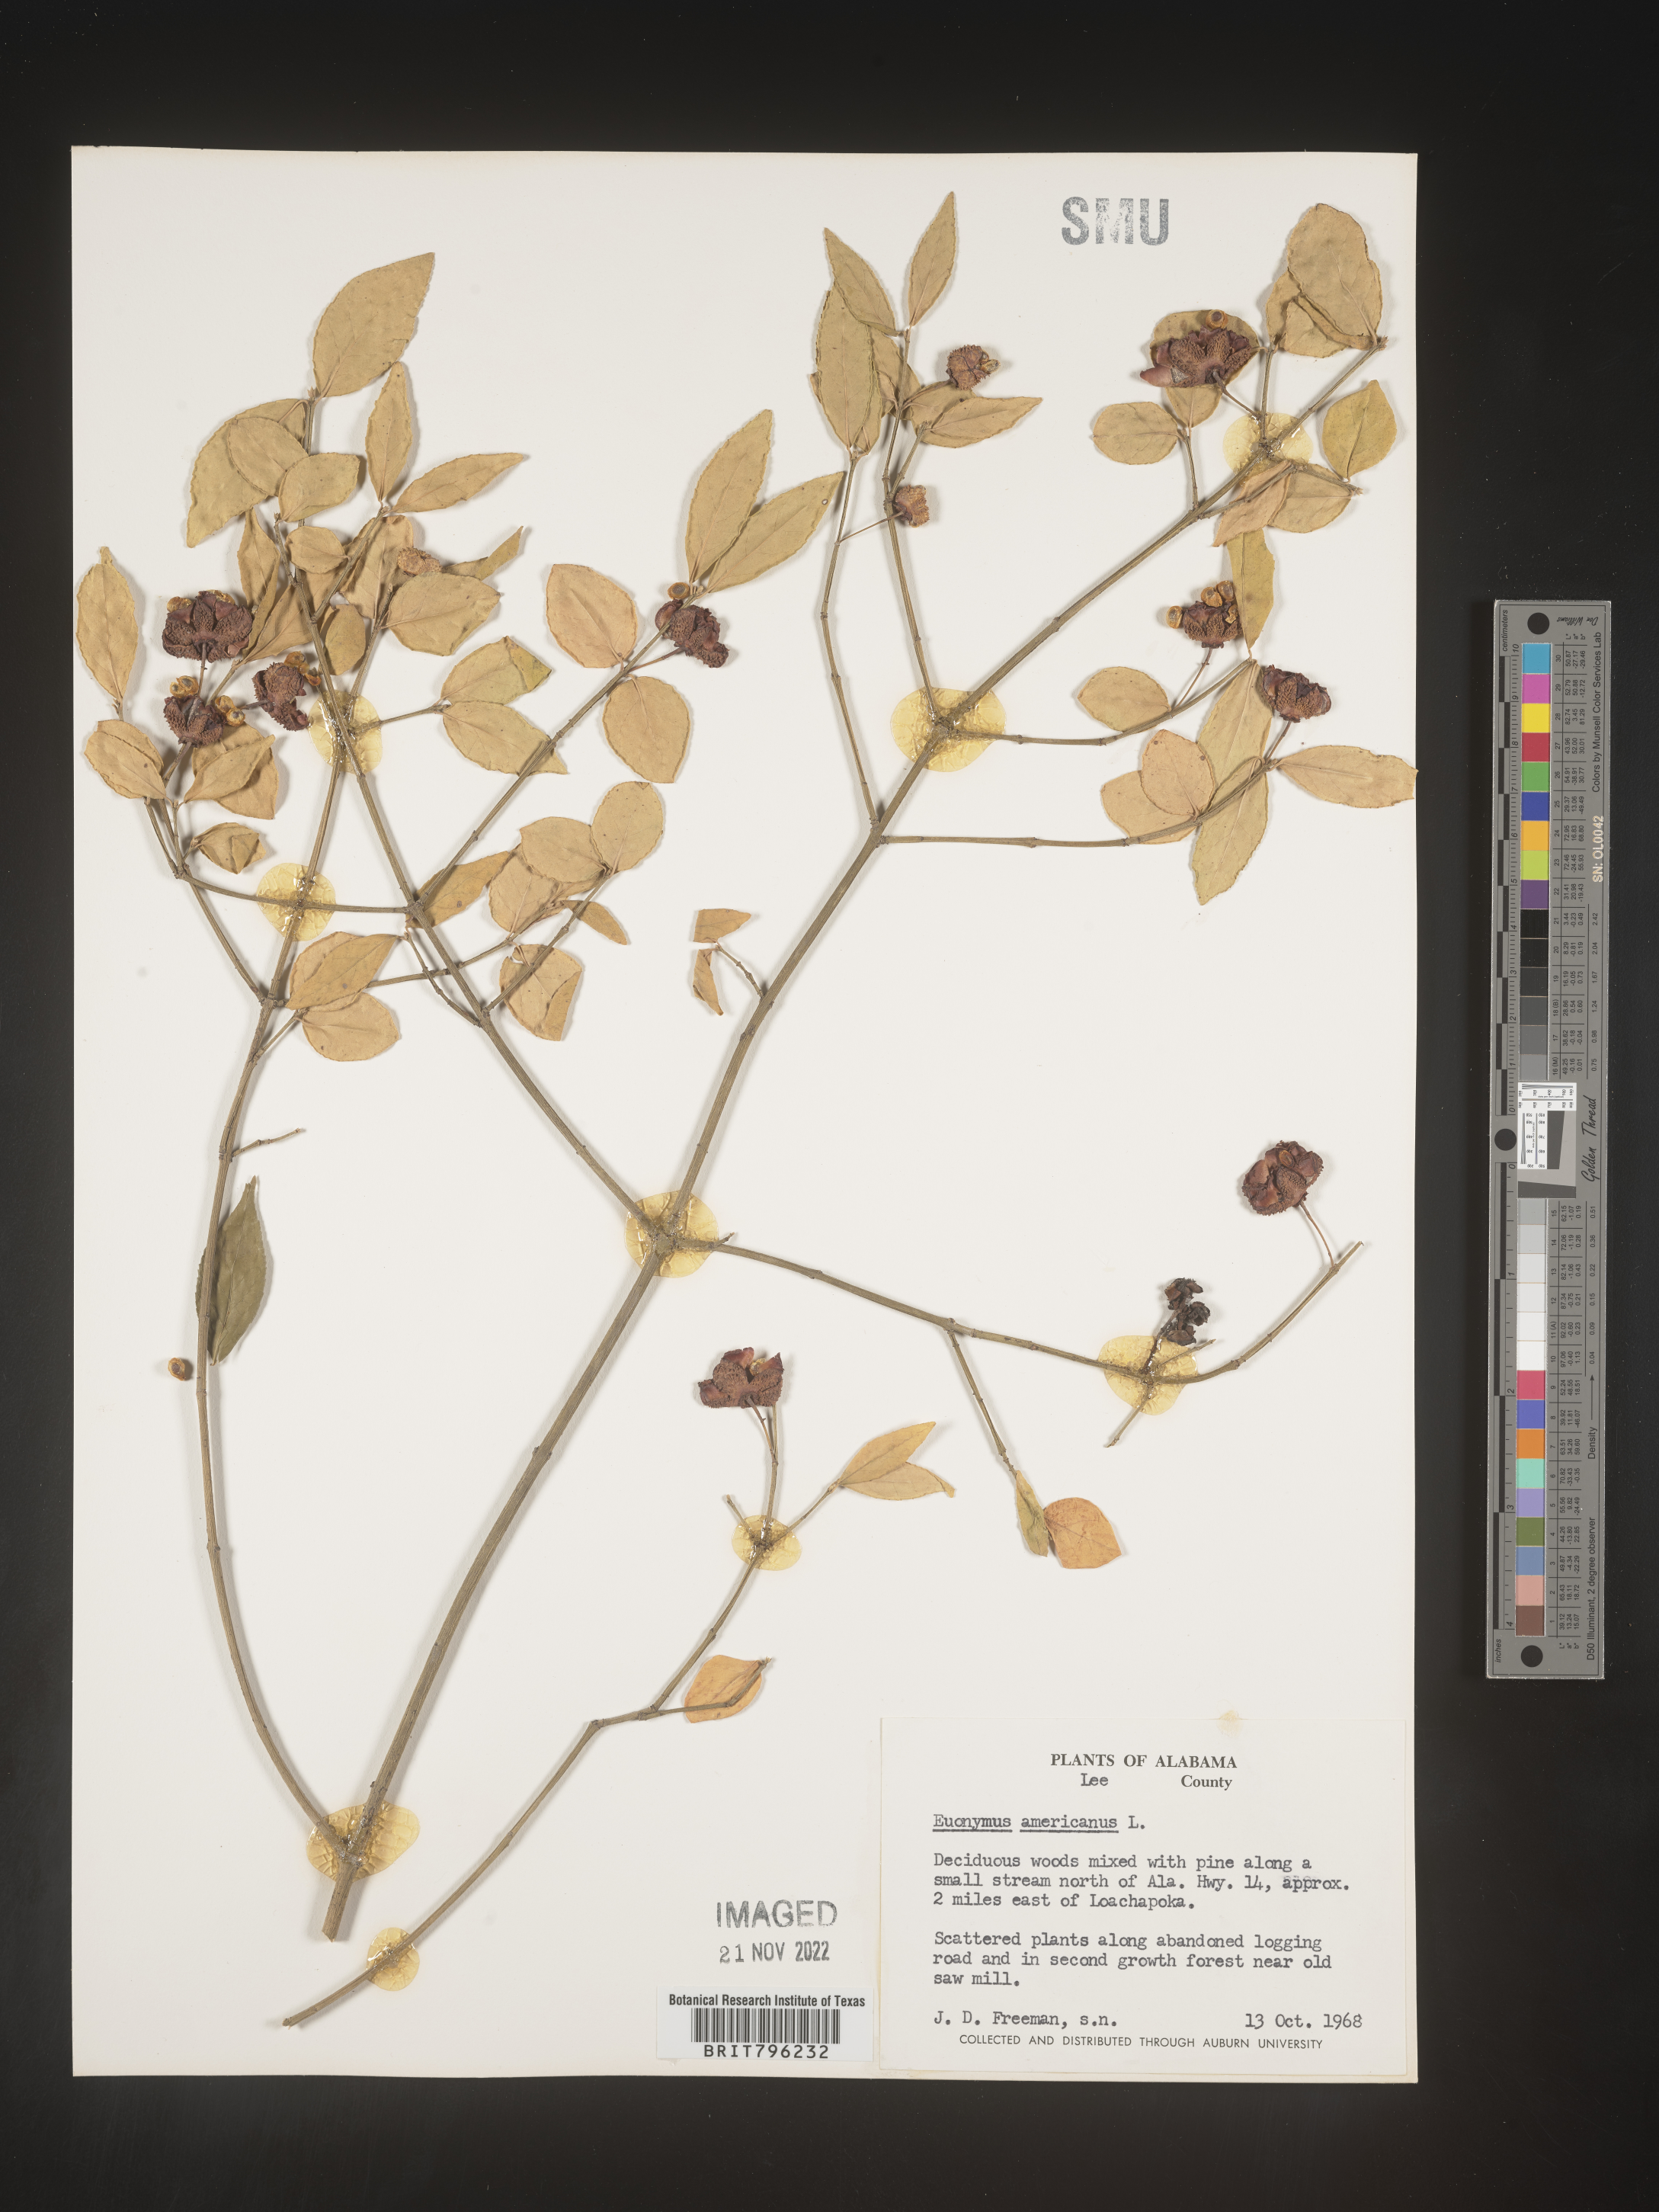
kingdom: Plantae
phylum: Tracheophyta
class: Magnoliopsida
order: Celastrales
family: Celastraceae
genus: Euonymus
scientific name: Euonymus americanus
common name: Bursting-heart
